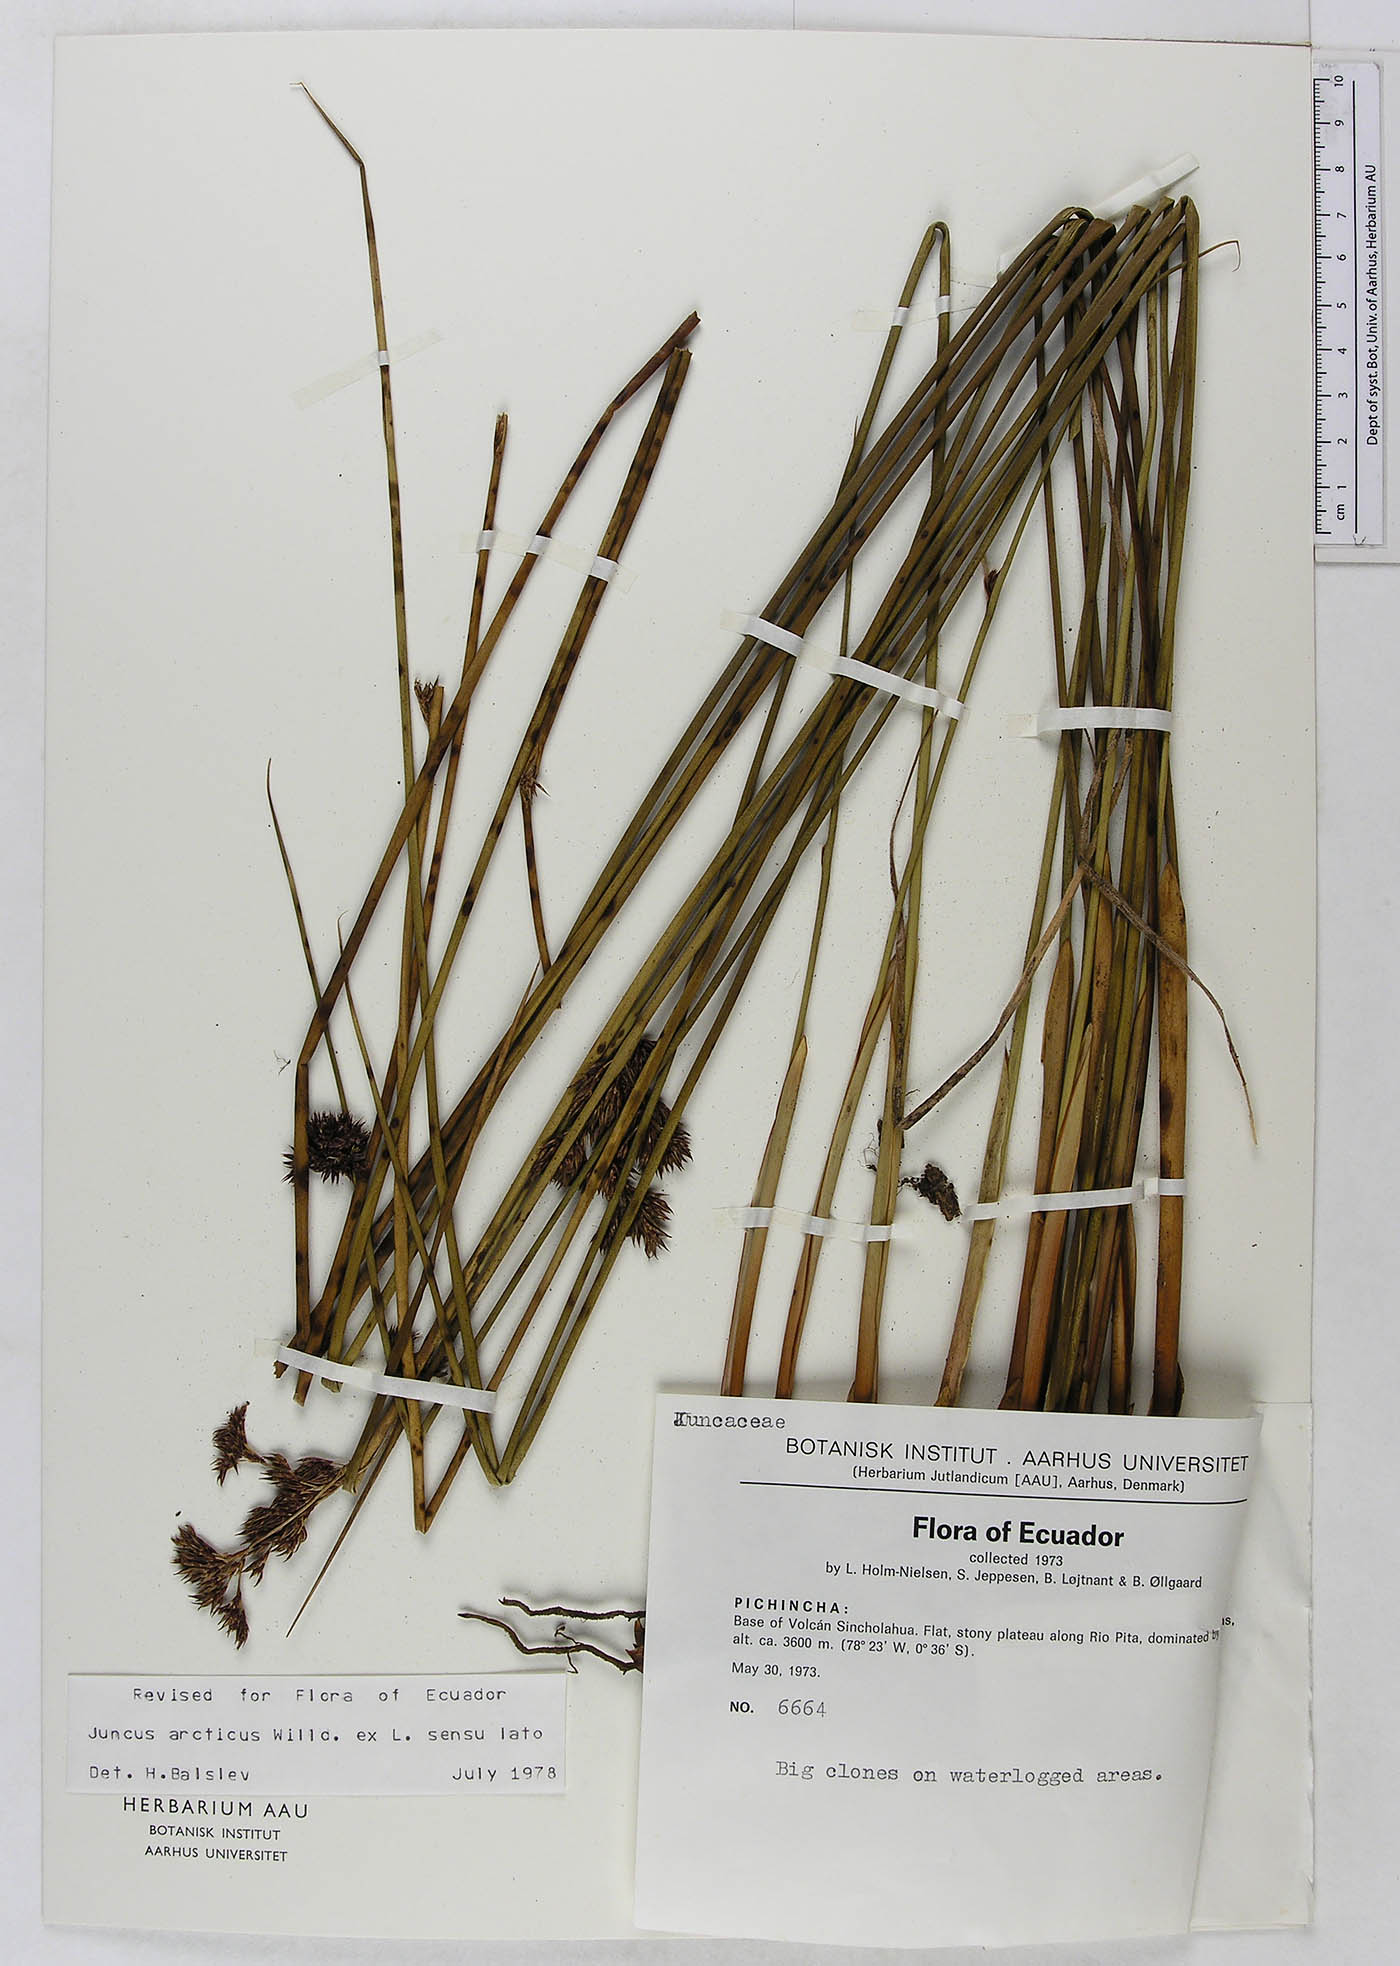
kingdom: Plantae
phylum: Tracheophyta
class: Liliopsida
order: Poales
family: Juncaceae
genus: Juncus
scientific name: Juncus balticus
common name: Baltic rush
